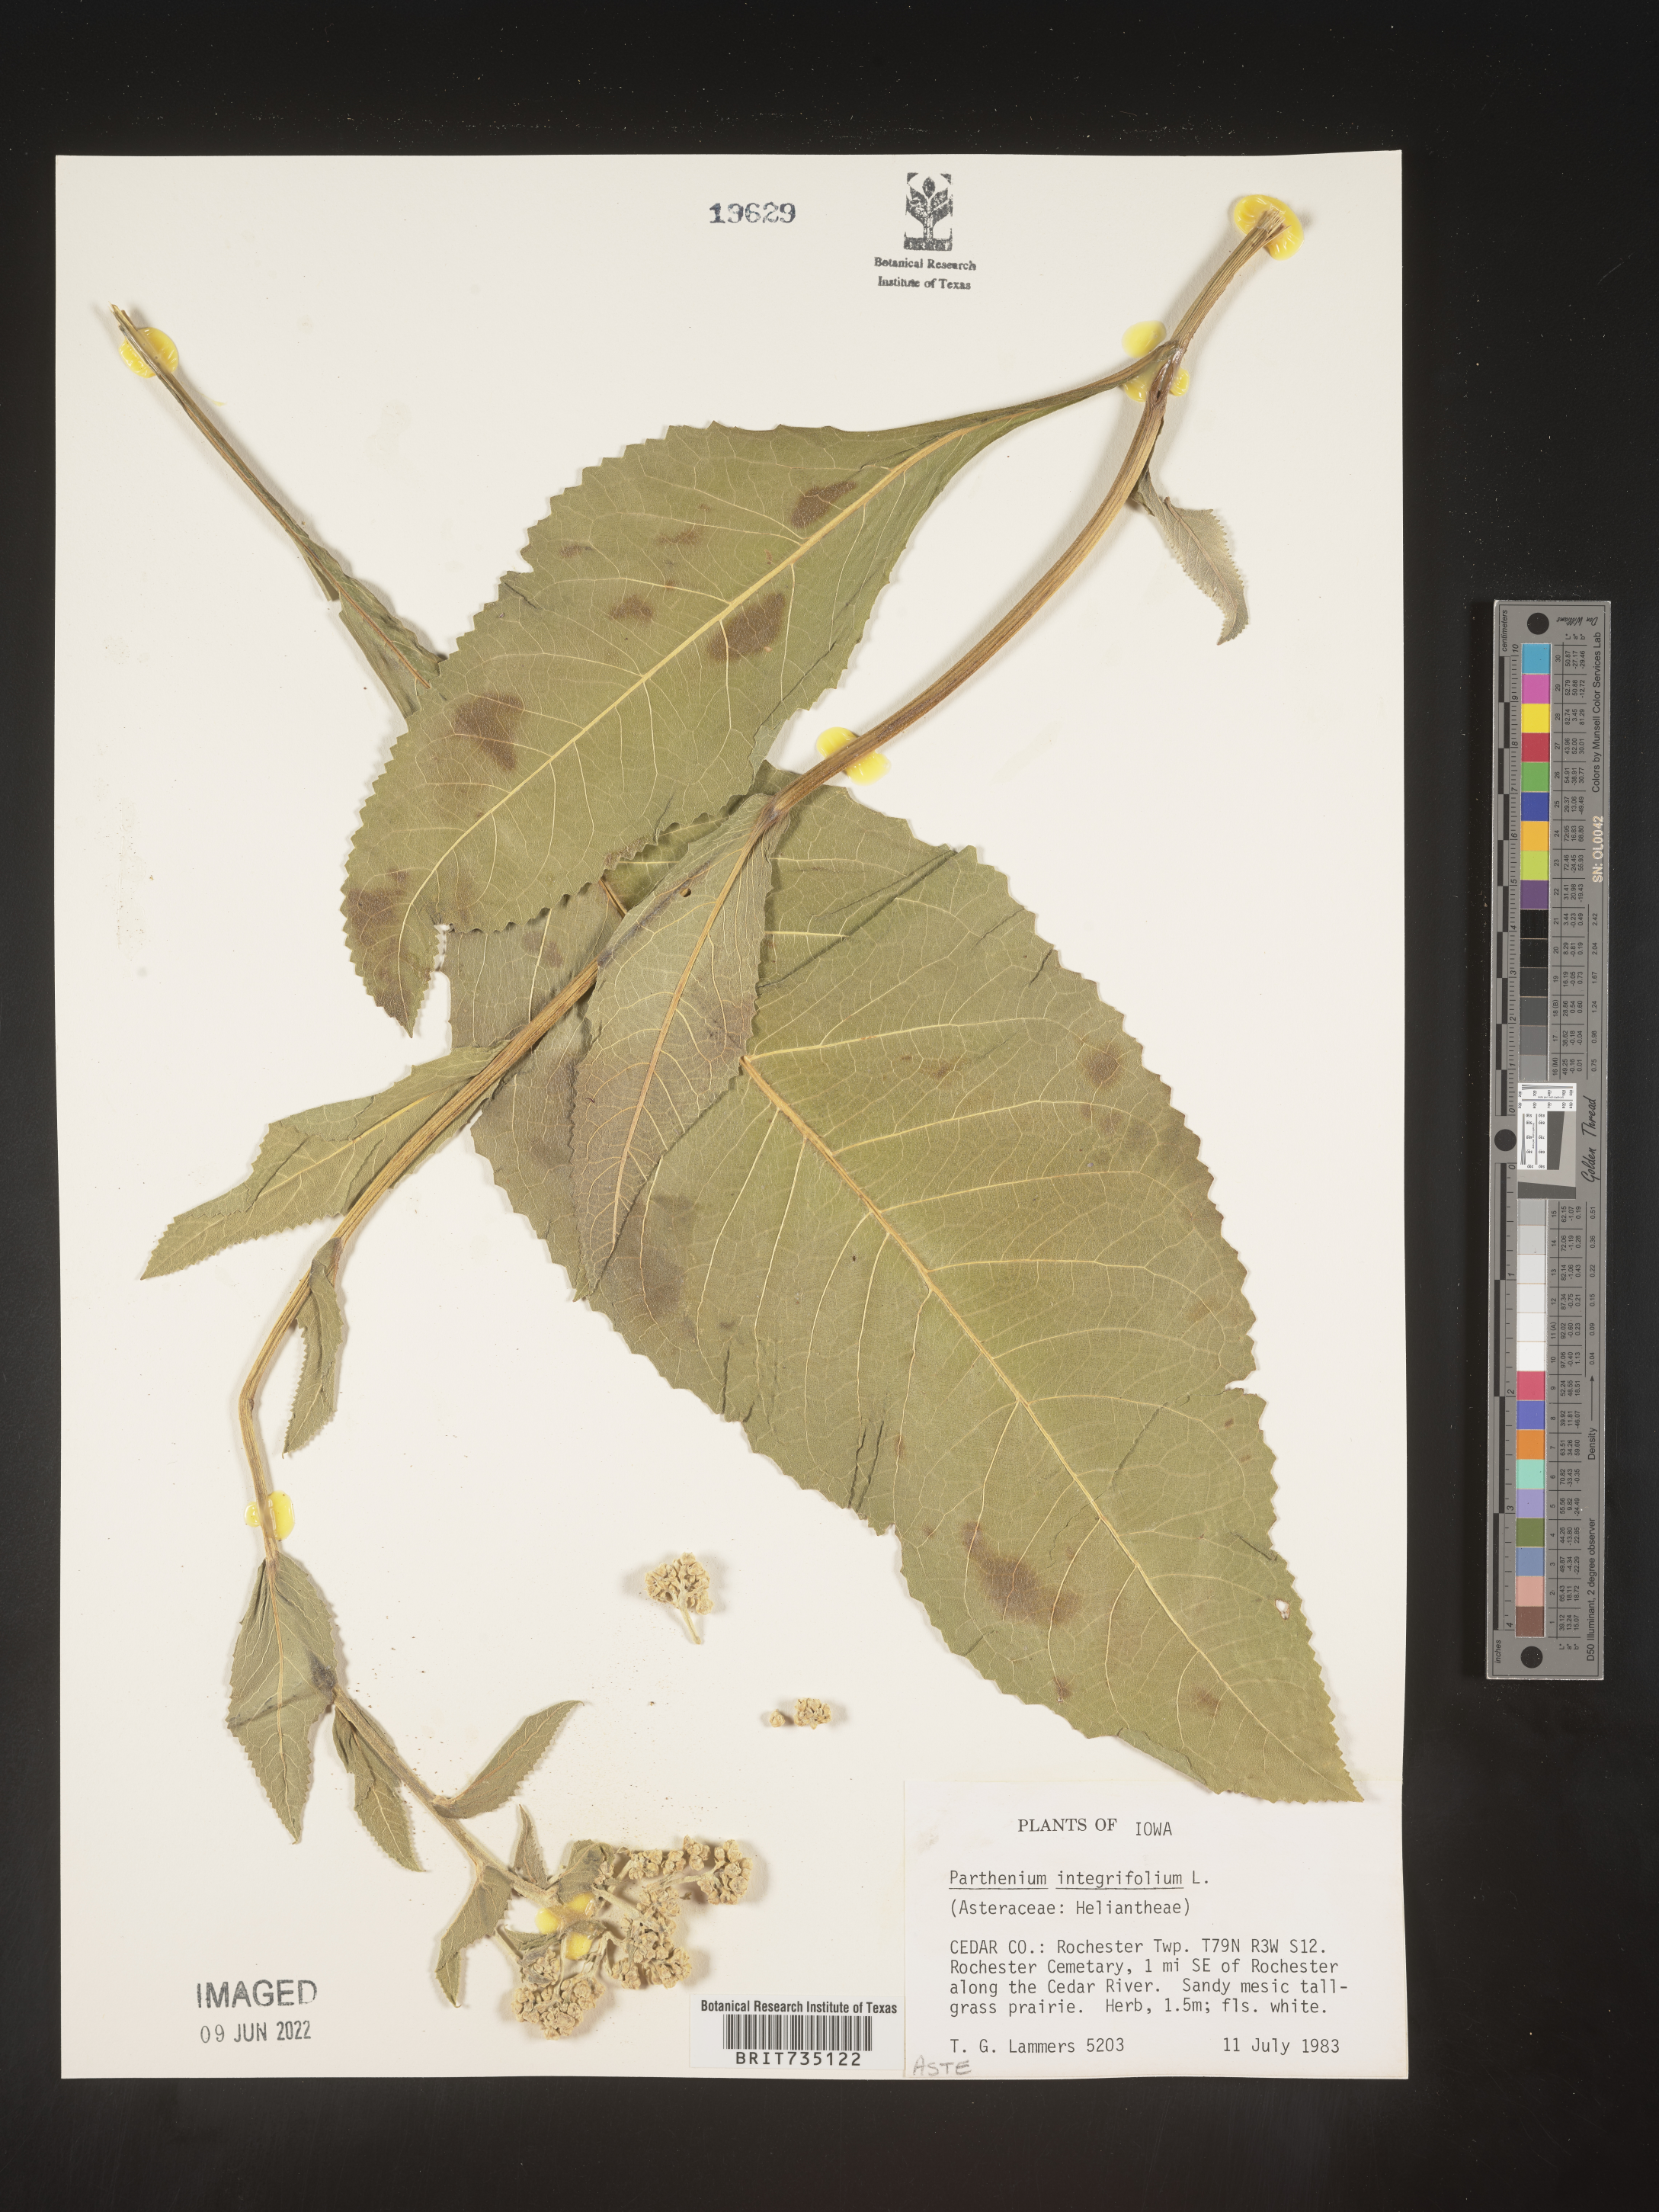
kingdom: Plantae
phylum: Tracheophyta
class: Magnoliopsida
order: Asterales
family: Asteraceae
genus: Parthenium
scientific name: Parthenium integrifolium
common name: American feverfew
